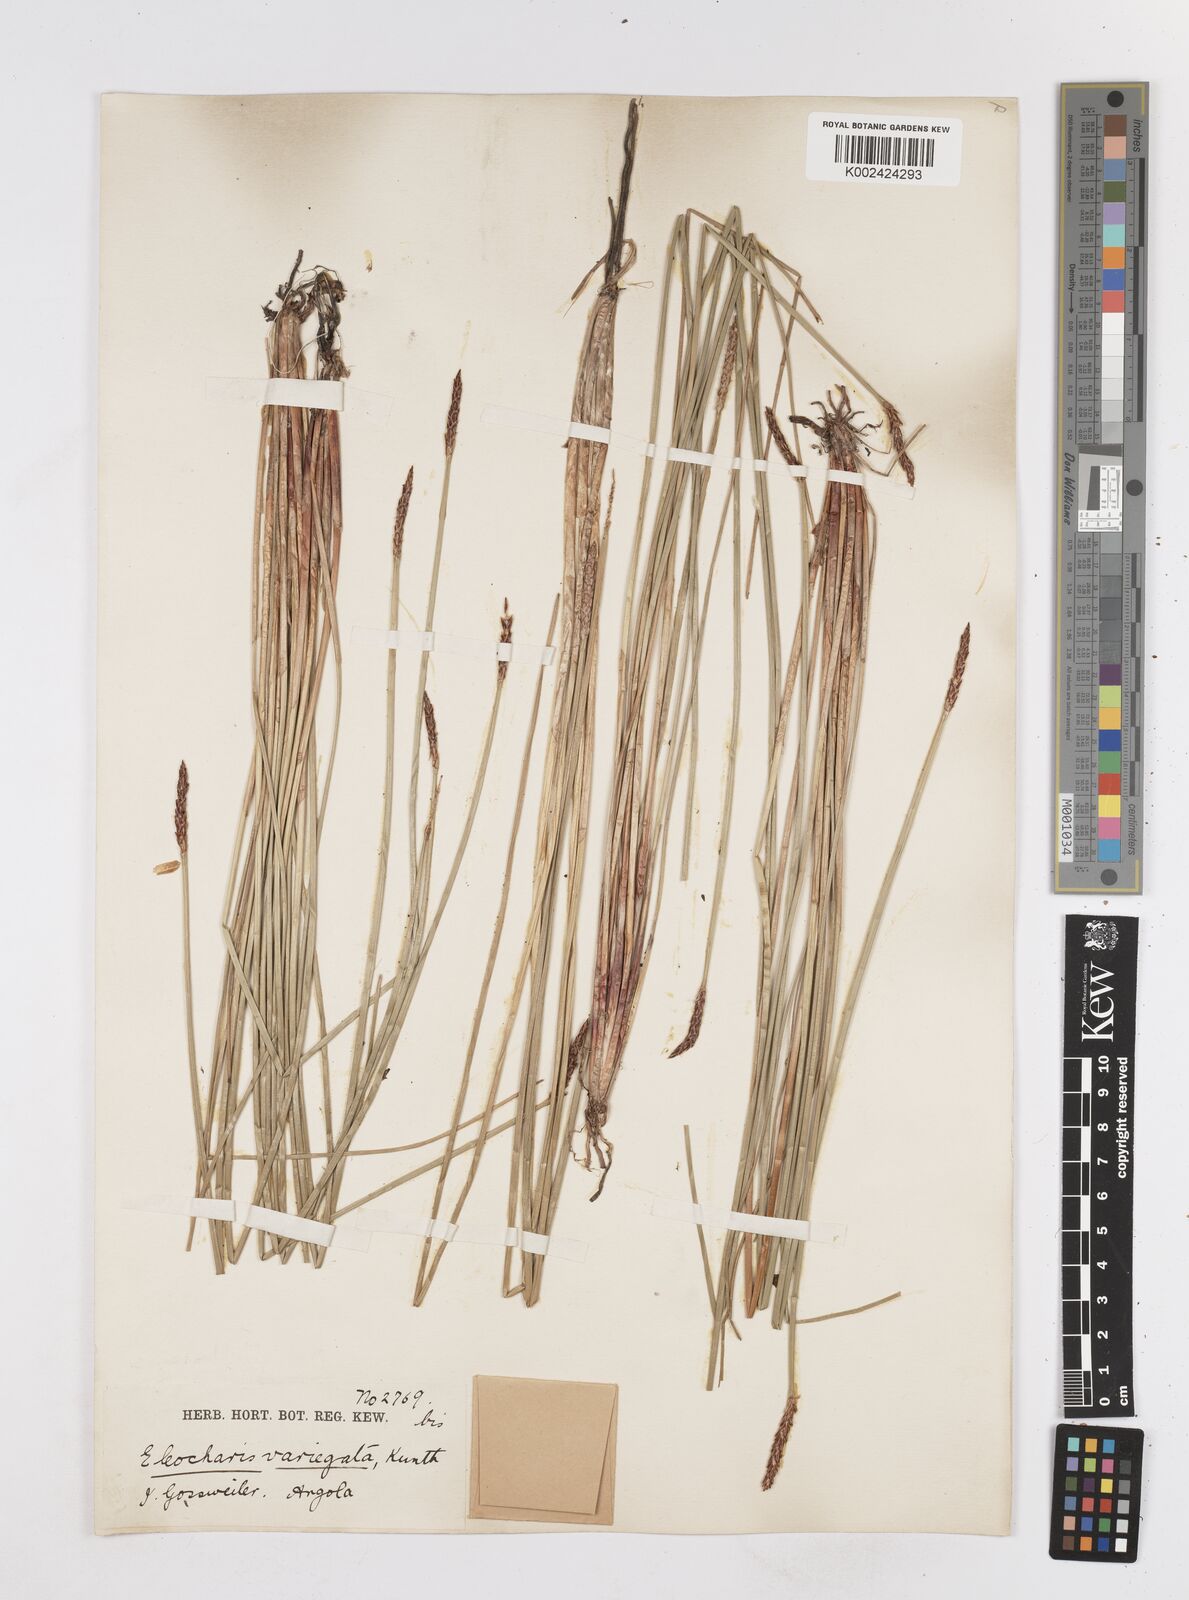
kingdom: Plantae
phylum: Tracheophyta
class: Liliopsida
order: Poales
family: Cyperaceae
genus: Eleocharis
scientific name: Eleocharis variegata
